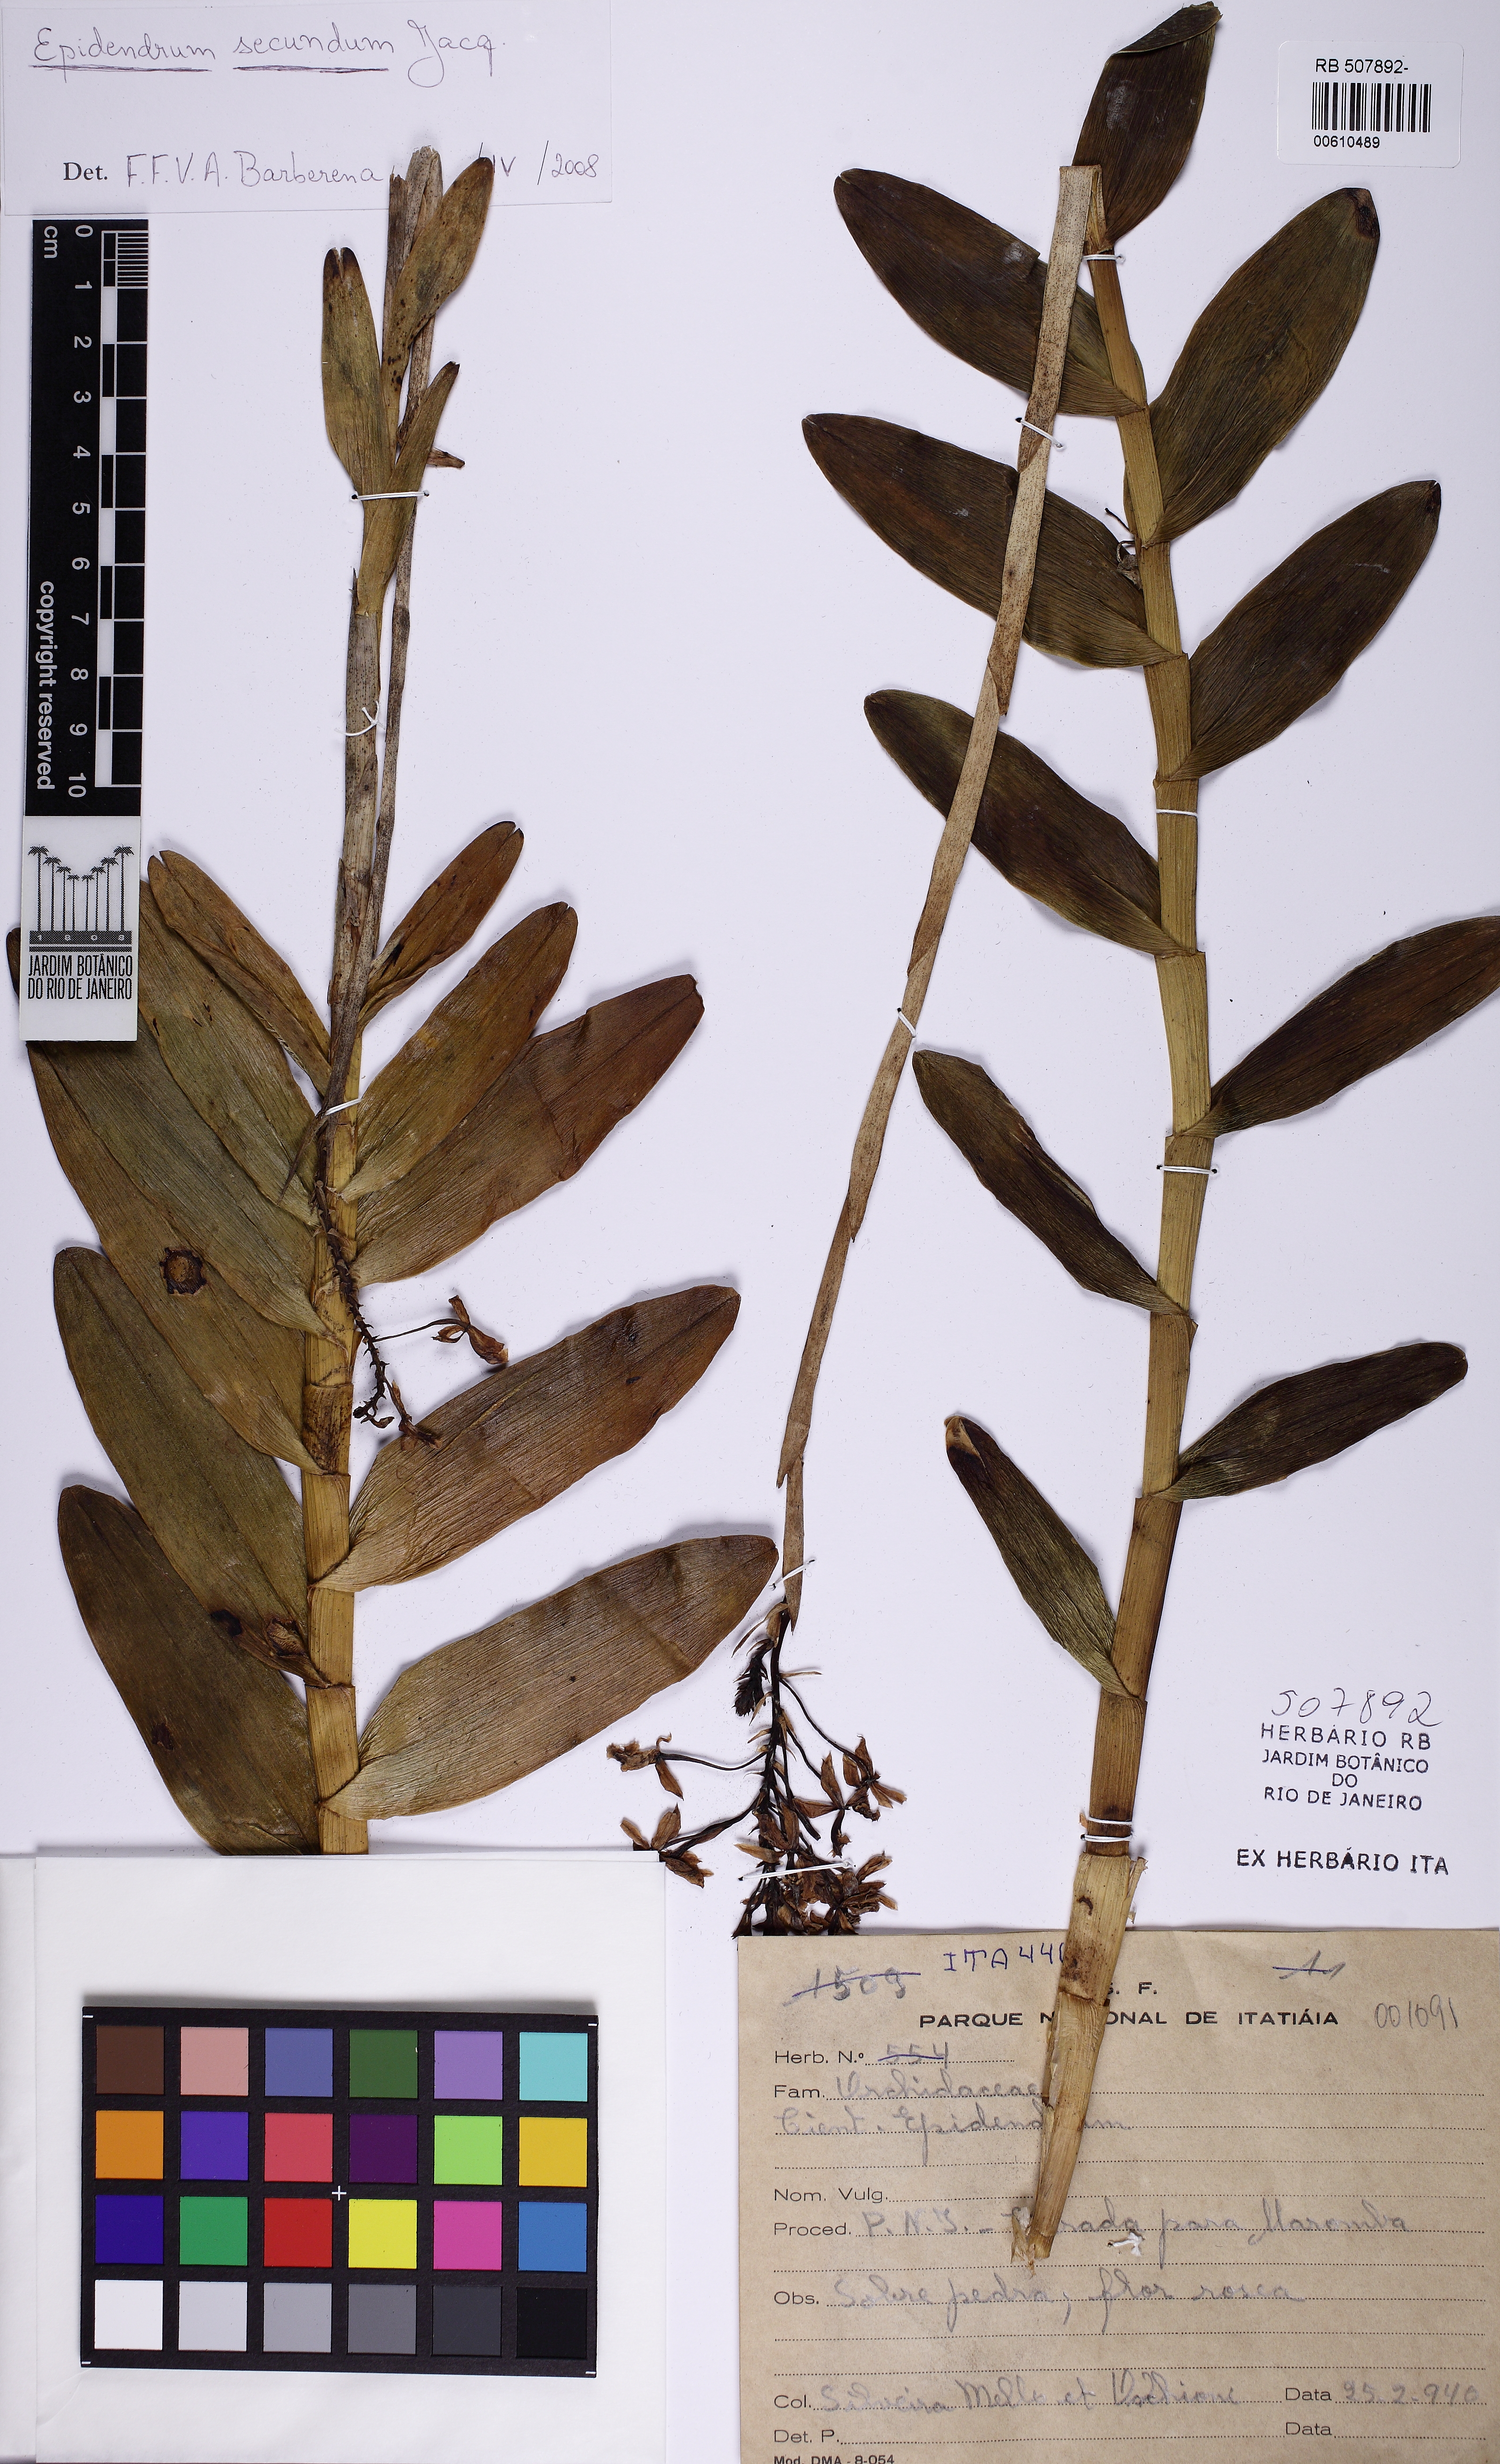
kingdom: Plantae
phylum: Tracheophyta
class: Liliopsida
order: Asparagales
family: Orchidaceae
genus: Epidendrum
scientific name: Epidendrum secundum
